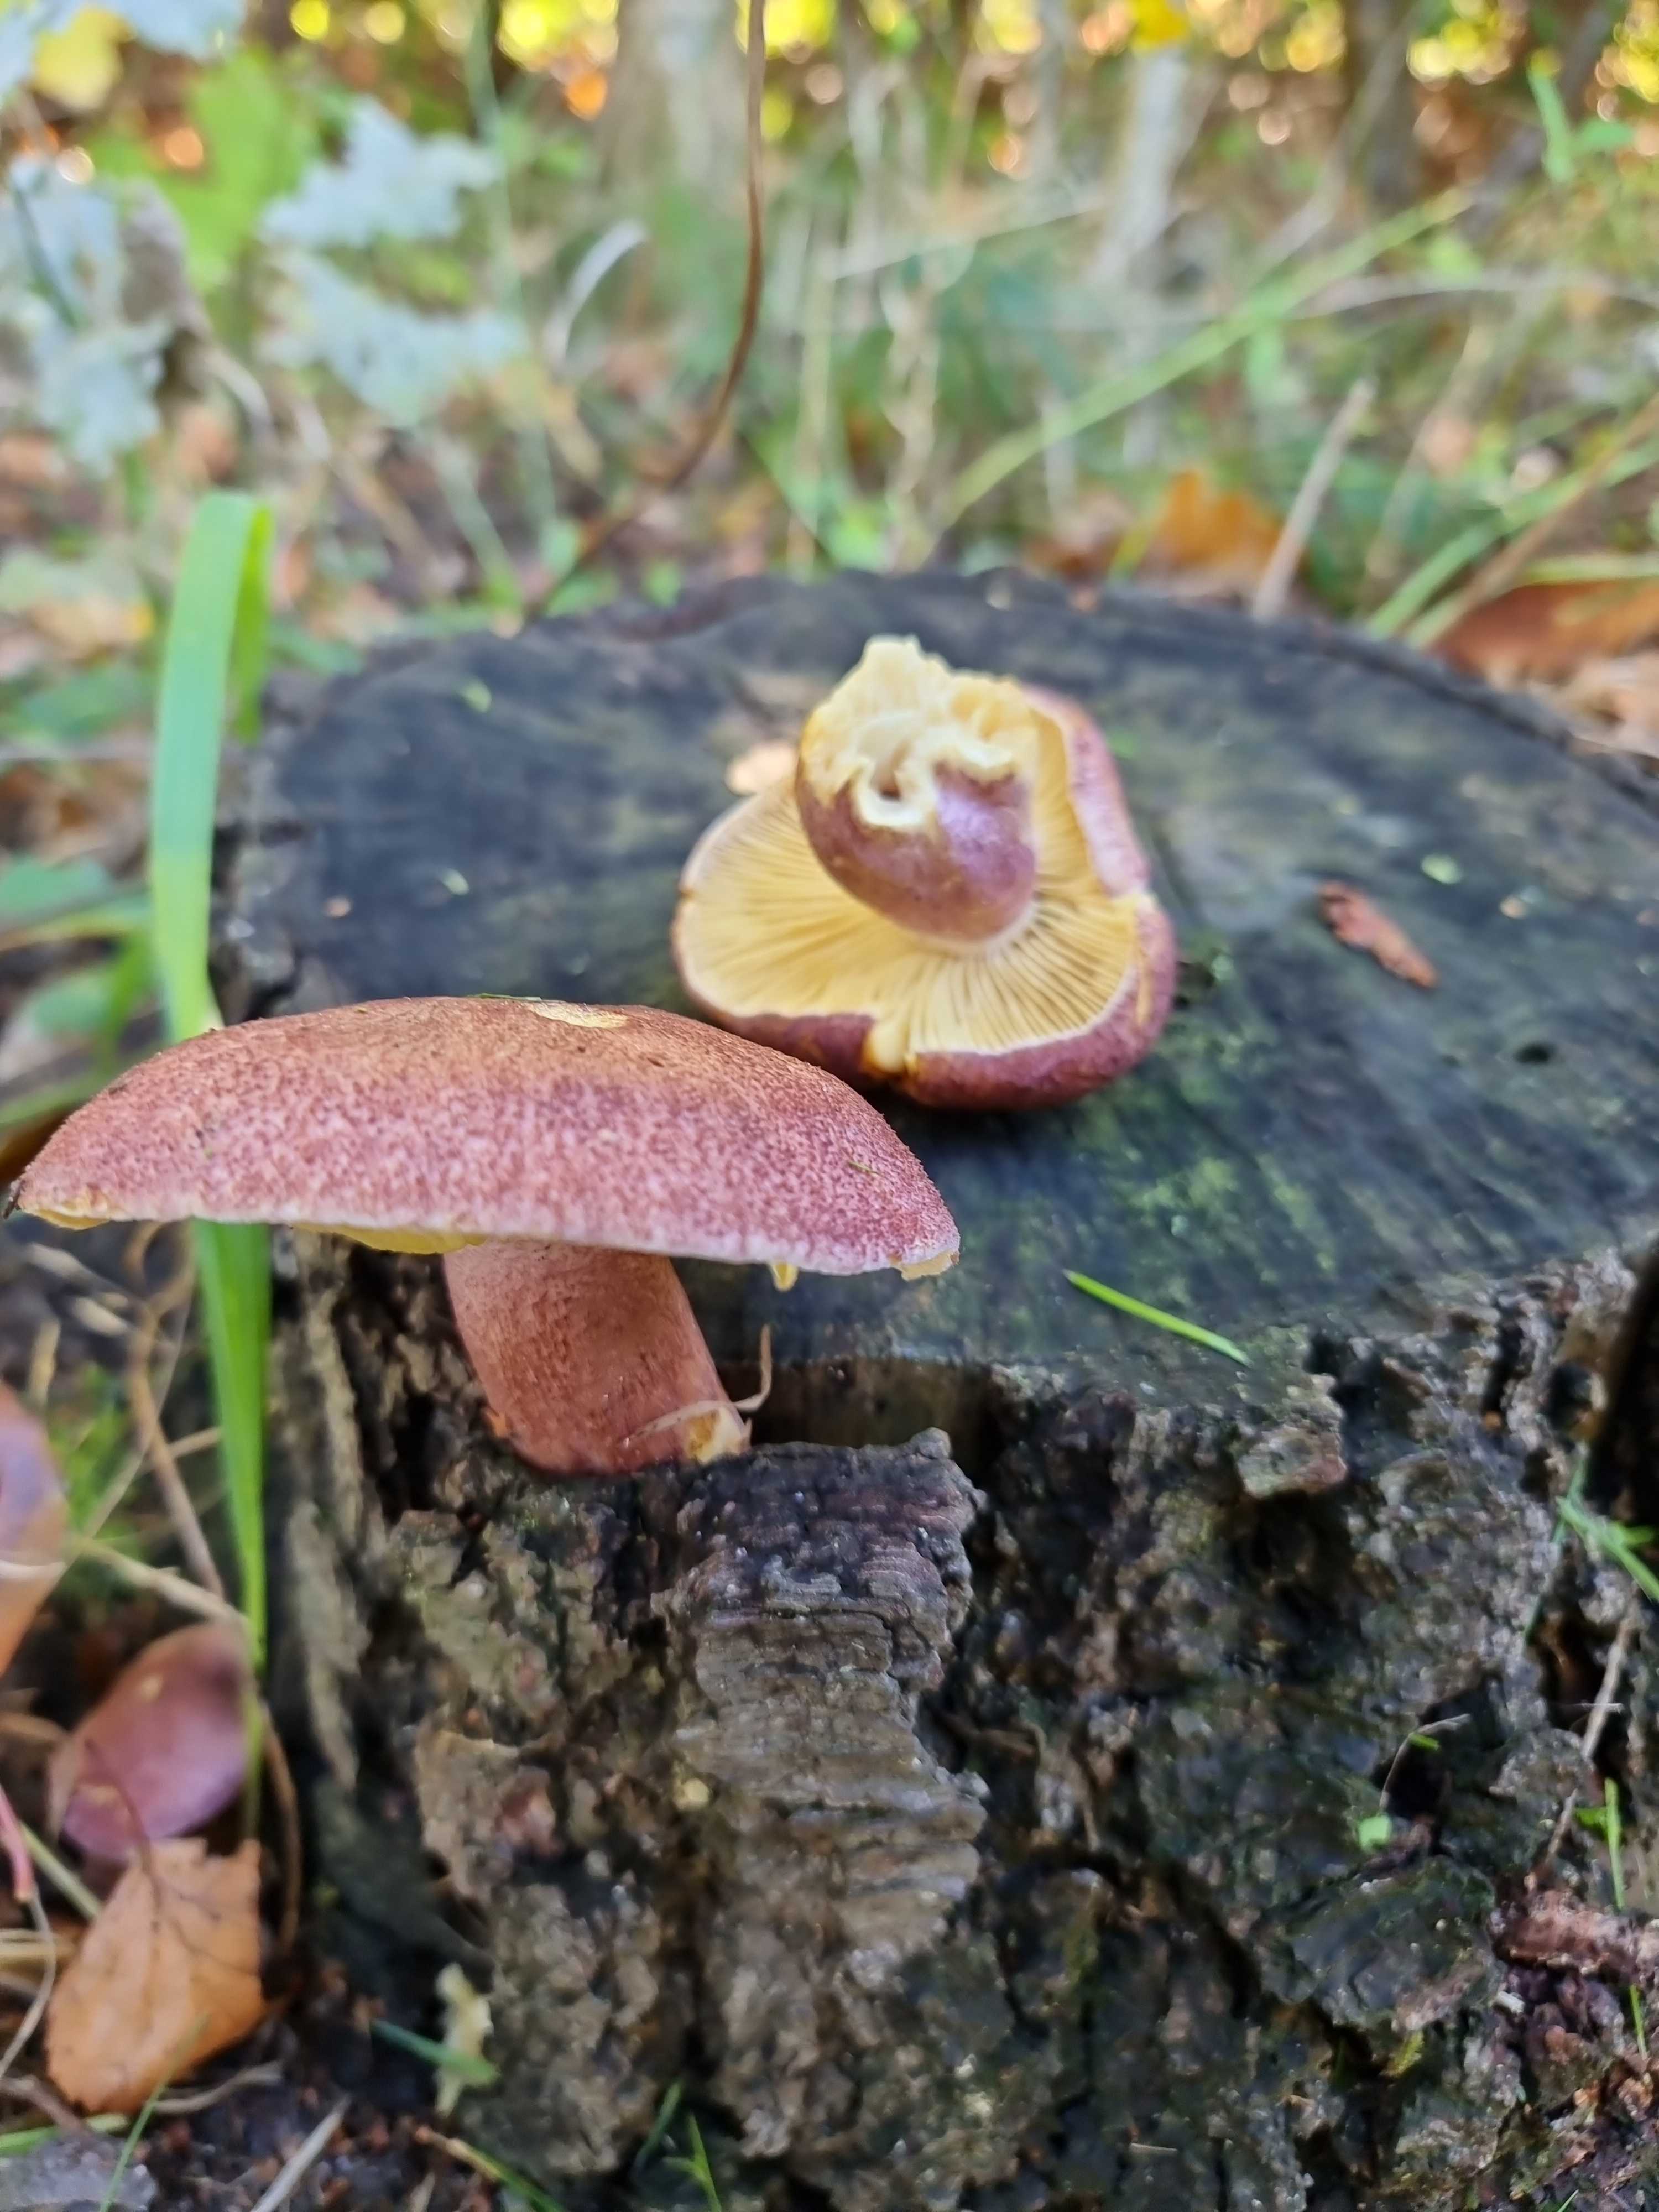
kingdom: Fungi
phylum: Basidiomycota
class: Agaricomycetes
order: Agaricales
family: Tricholomataceae
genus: Tricholomopsis
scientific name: Tricholomopsis rutilans
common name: purpur-væbnerhat
